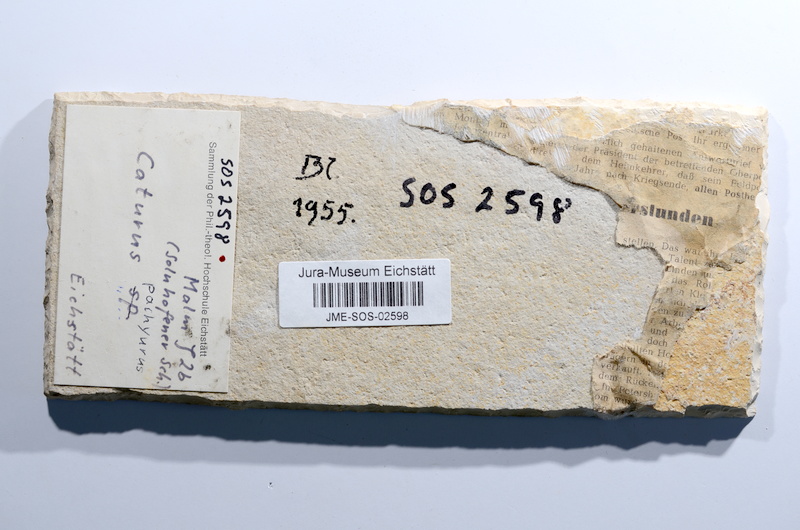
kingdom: Animalia
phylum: Chordata
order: Amiiformes
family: Caturidae
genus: Caturus
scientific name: Caturus
